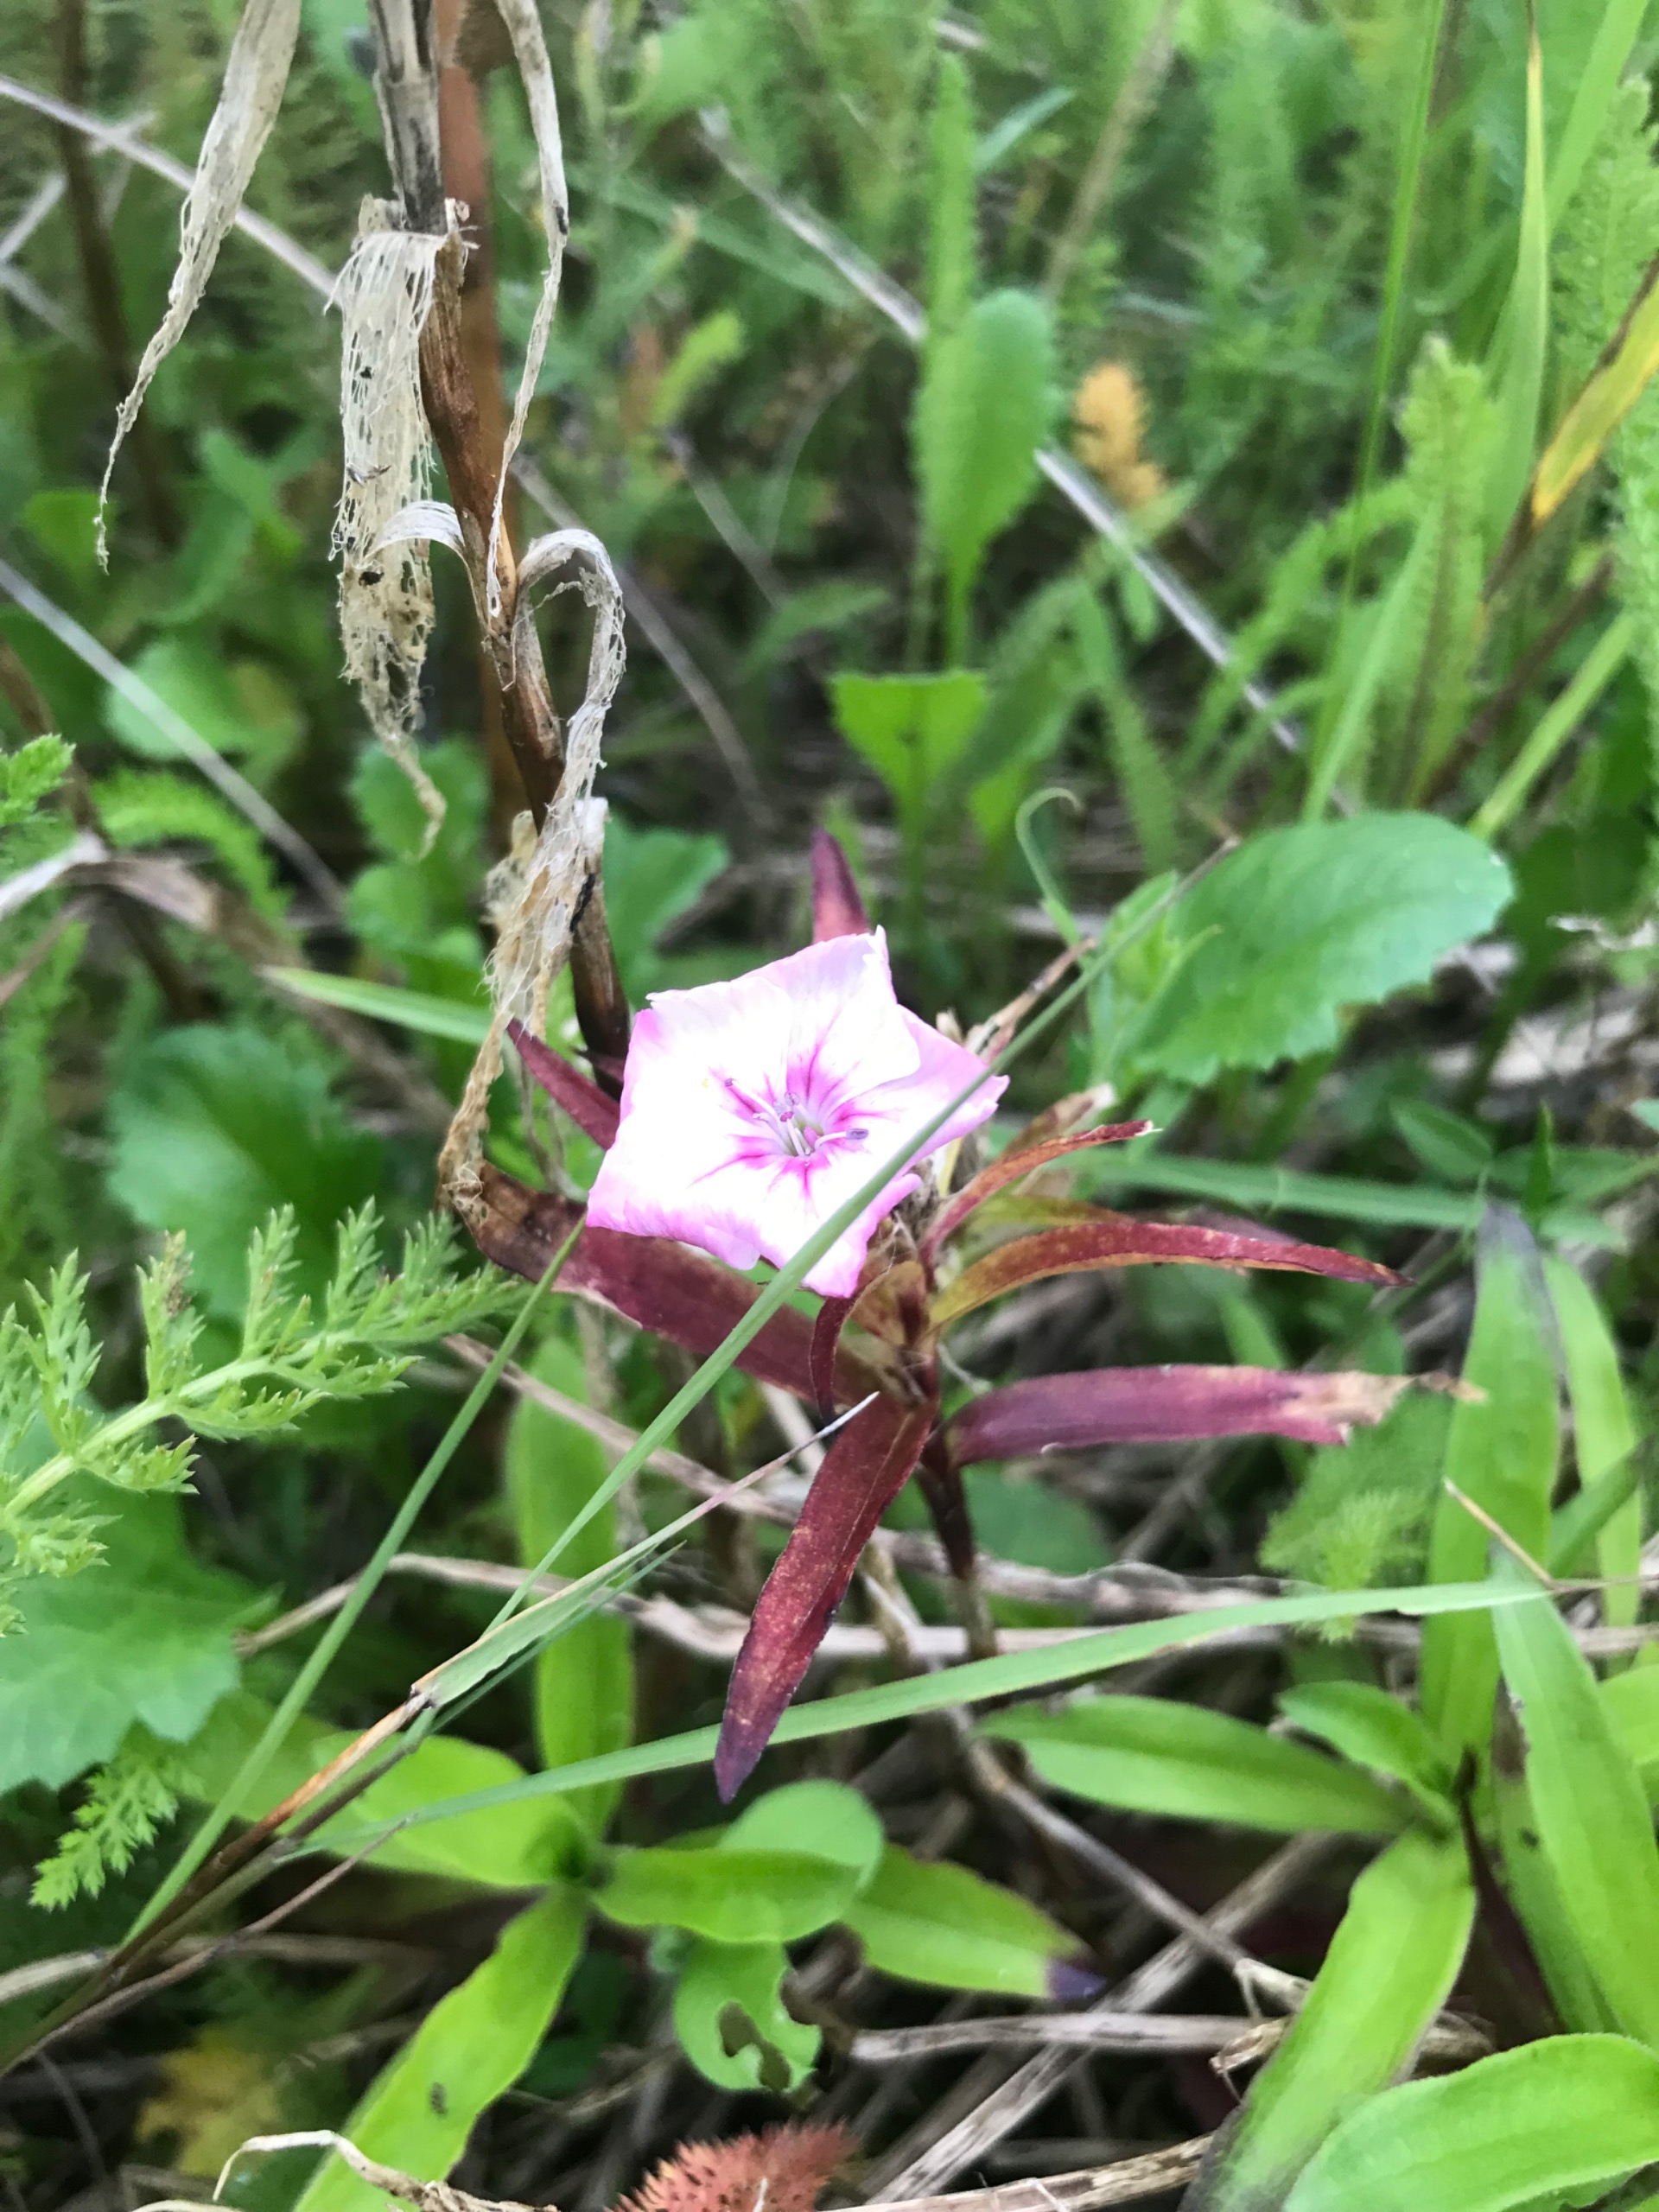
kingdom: Plantae
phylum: Tracheophyta
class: Magnoliopsida
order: Caryophyllales
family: Caryophyllaceae
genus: Dianthus
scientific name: Dianthus barbatus
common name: Studenter-nellike
